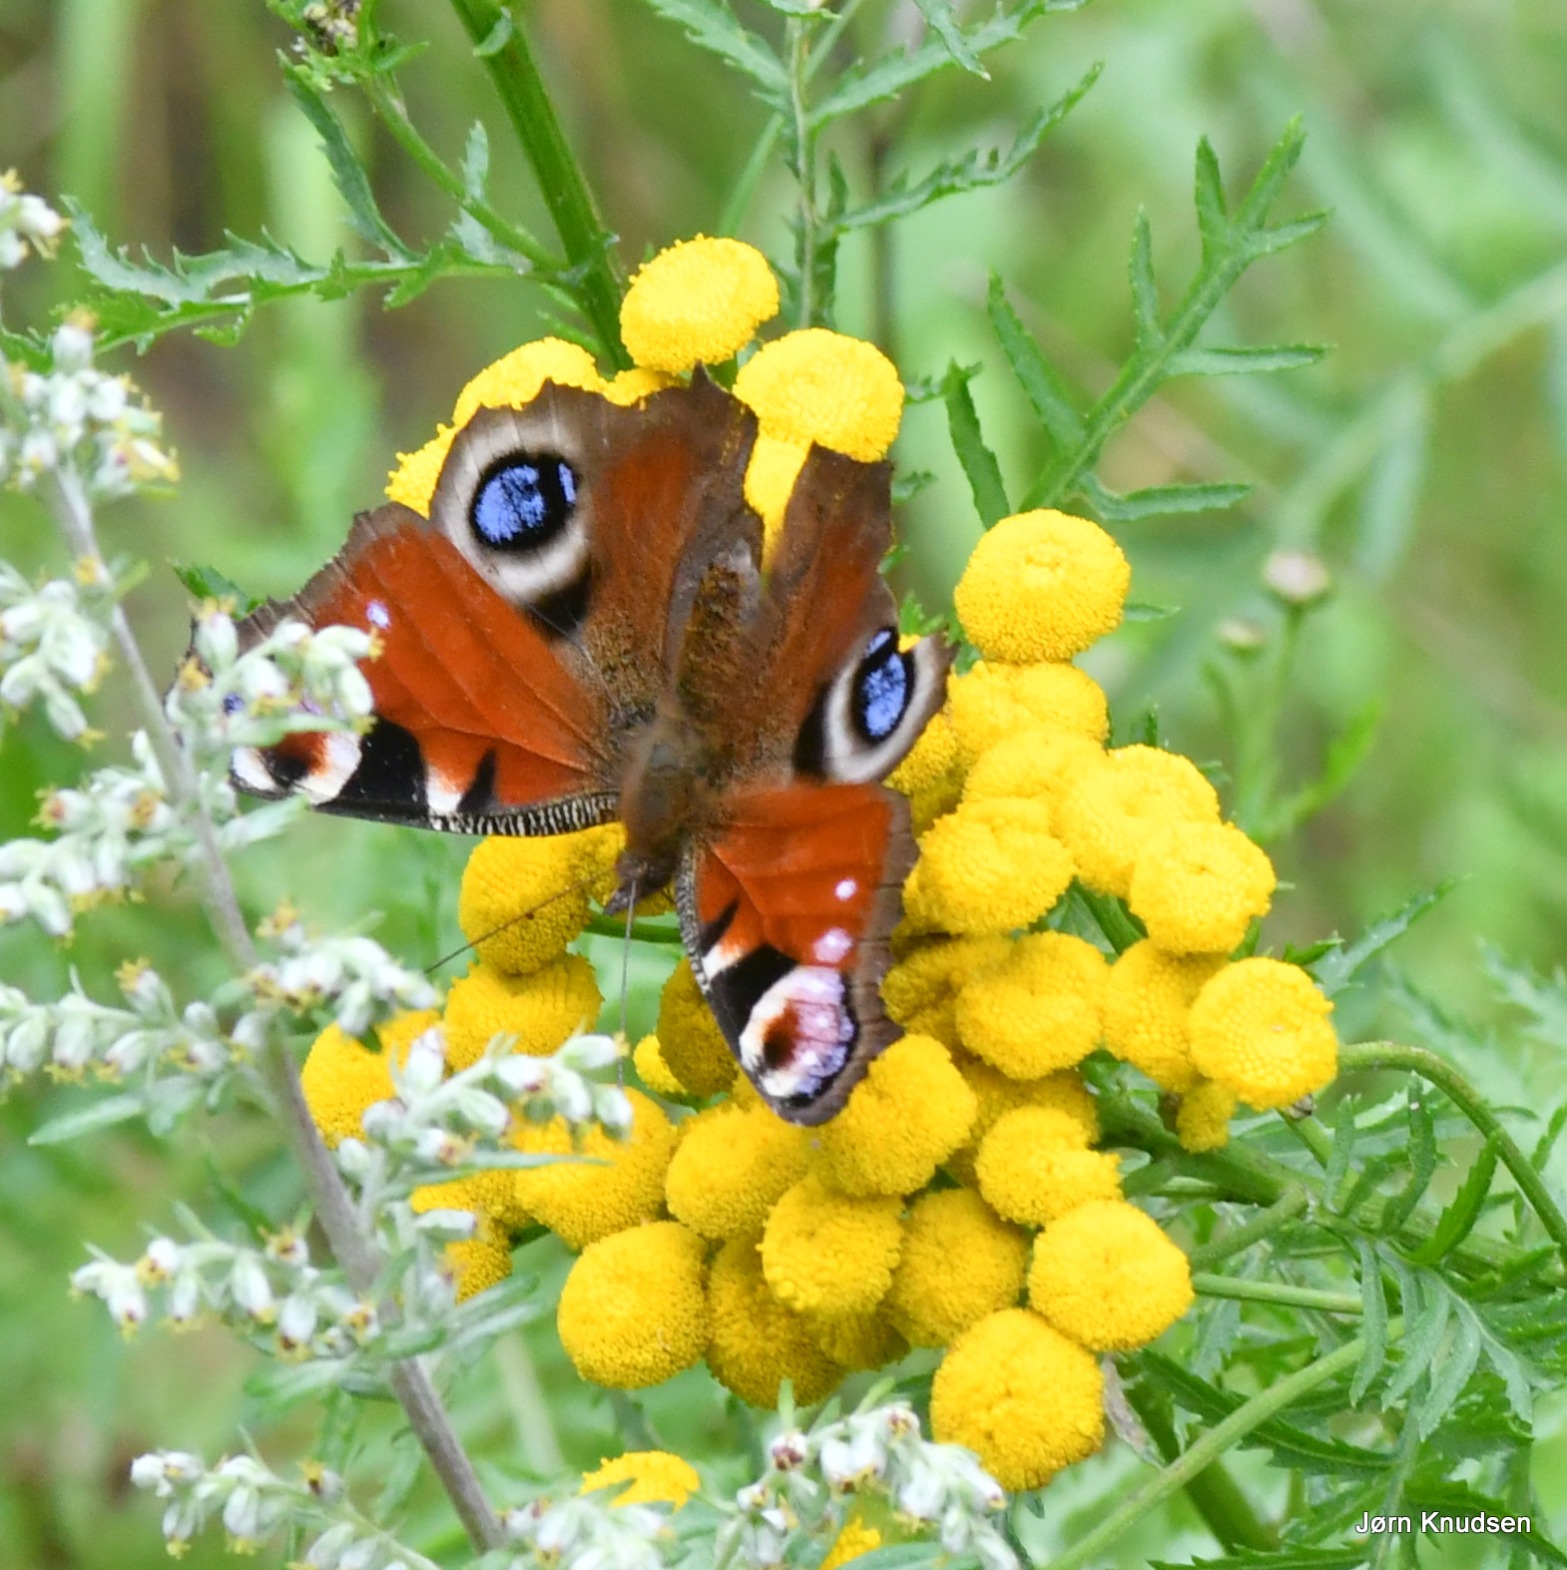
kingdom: Animalia
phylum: Arthropoda
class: Insecta
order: Lepidoptera
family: Nymphalidae
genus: Aglais
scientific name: Aglais io
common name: Dagpåfugleøje
